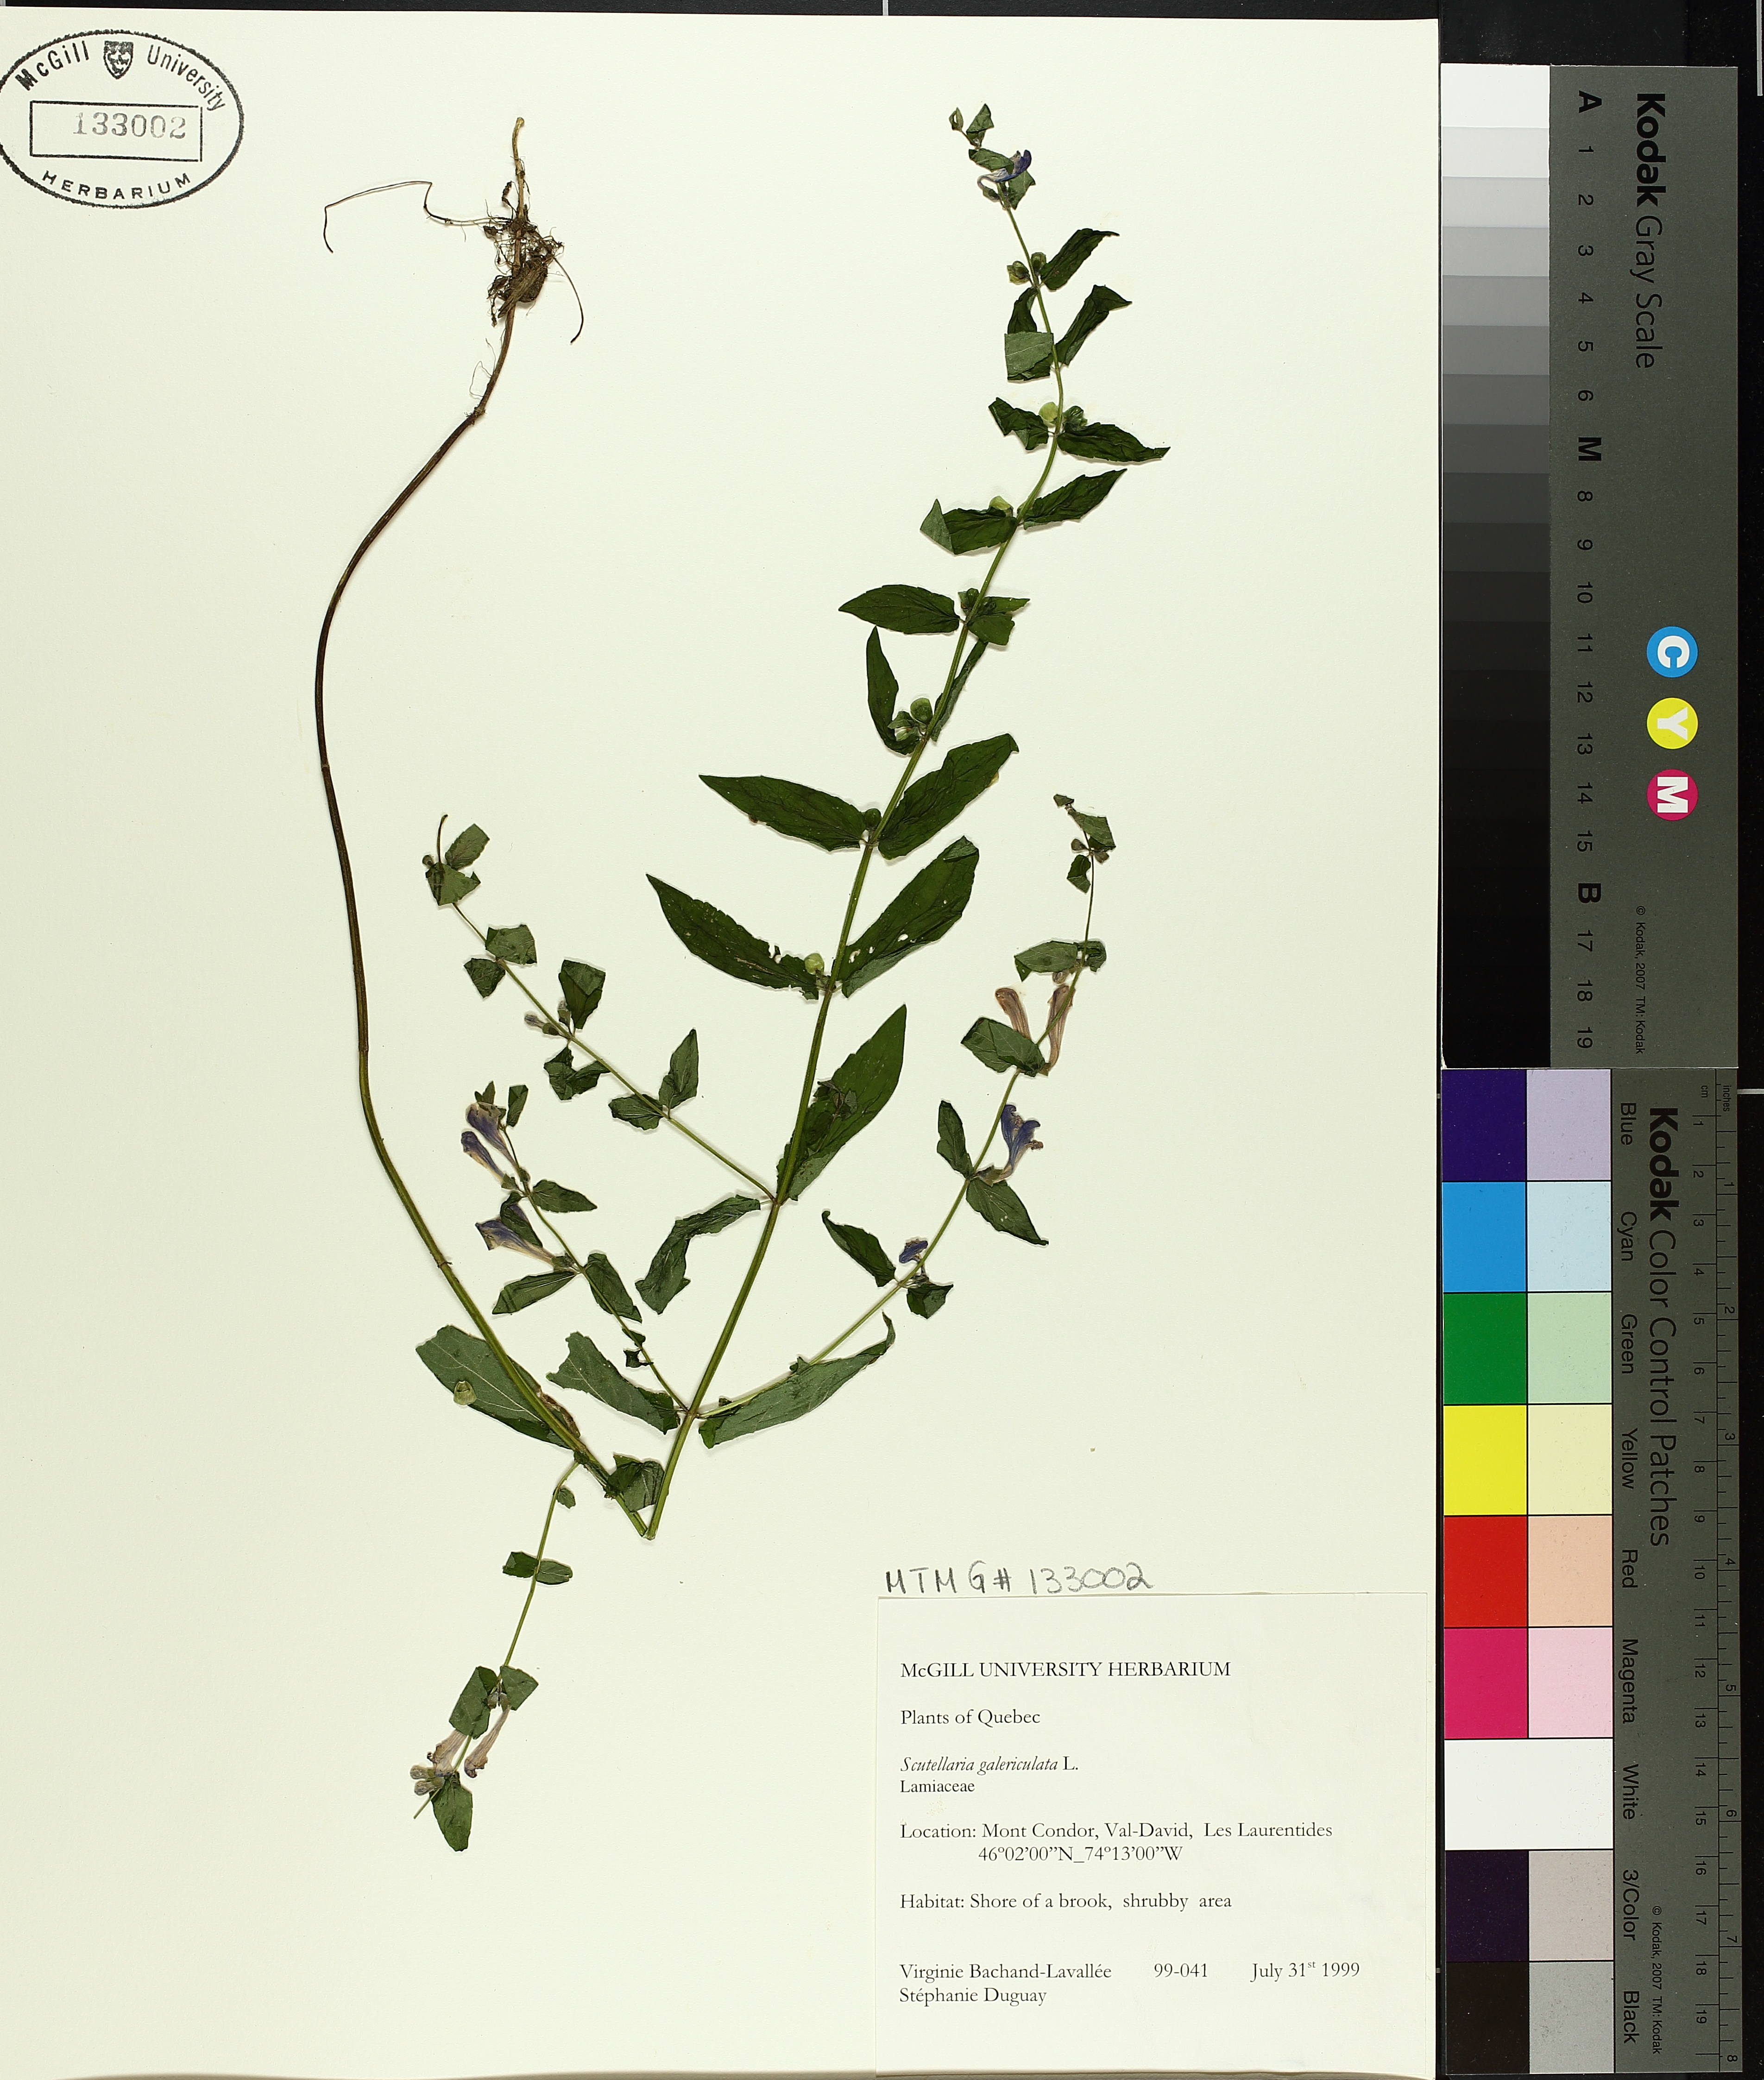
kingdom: Plantae
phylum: Tracheophyta
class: Magnoliopsida
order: Lamiales
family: Lamiaceae
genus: Scutellaria
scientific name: Scutellaria galericulata
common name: Skullcap
